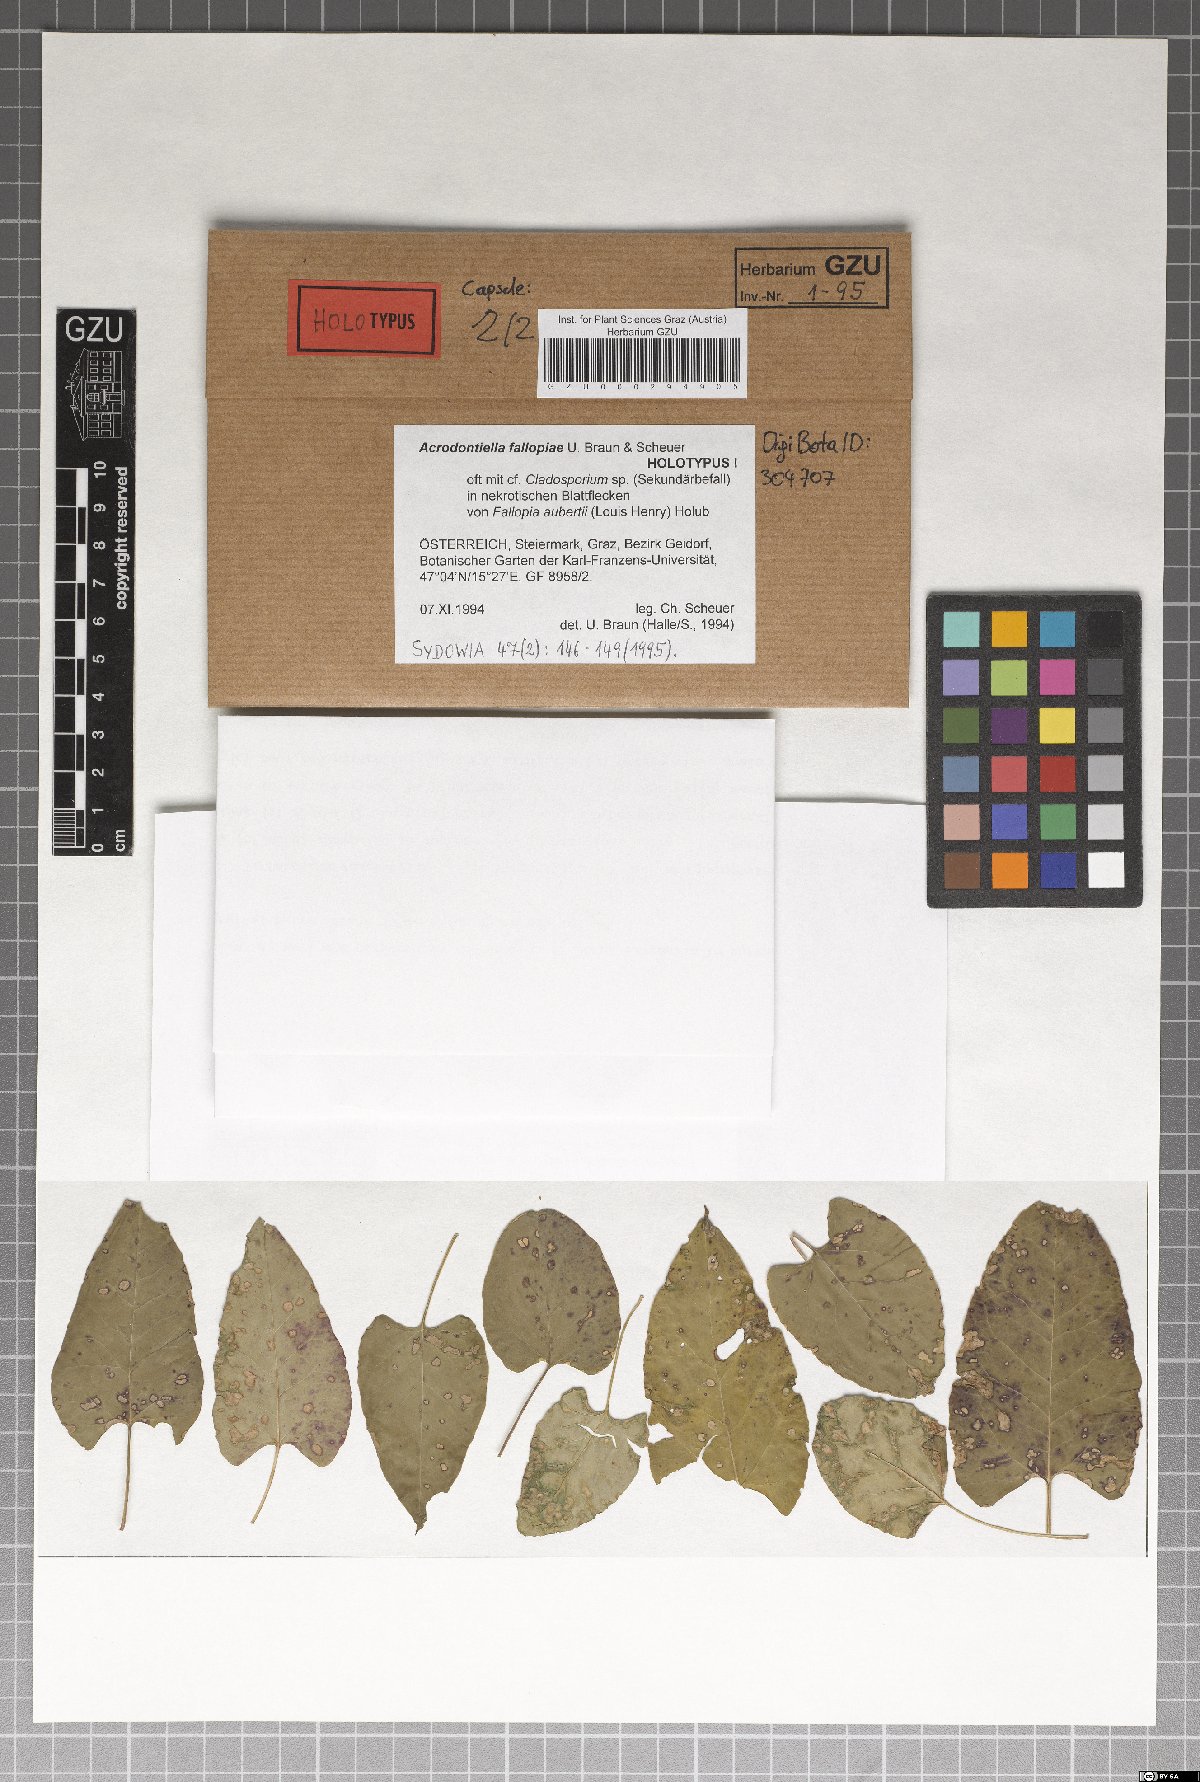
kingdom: Fungi
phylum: Ascomycota
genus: Acrodontiella
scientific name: Acrodontiella fallopiae
